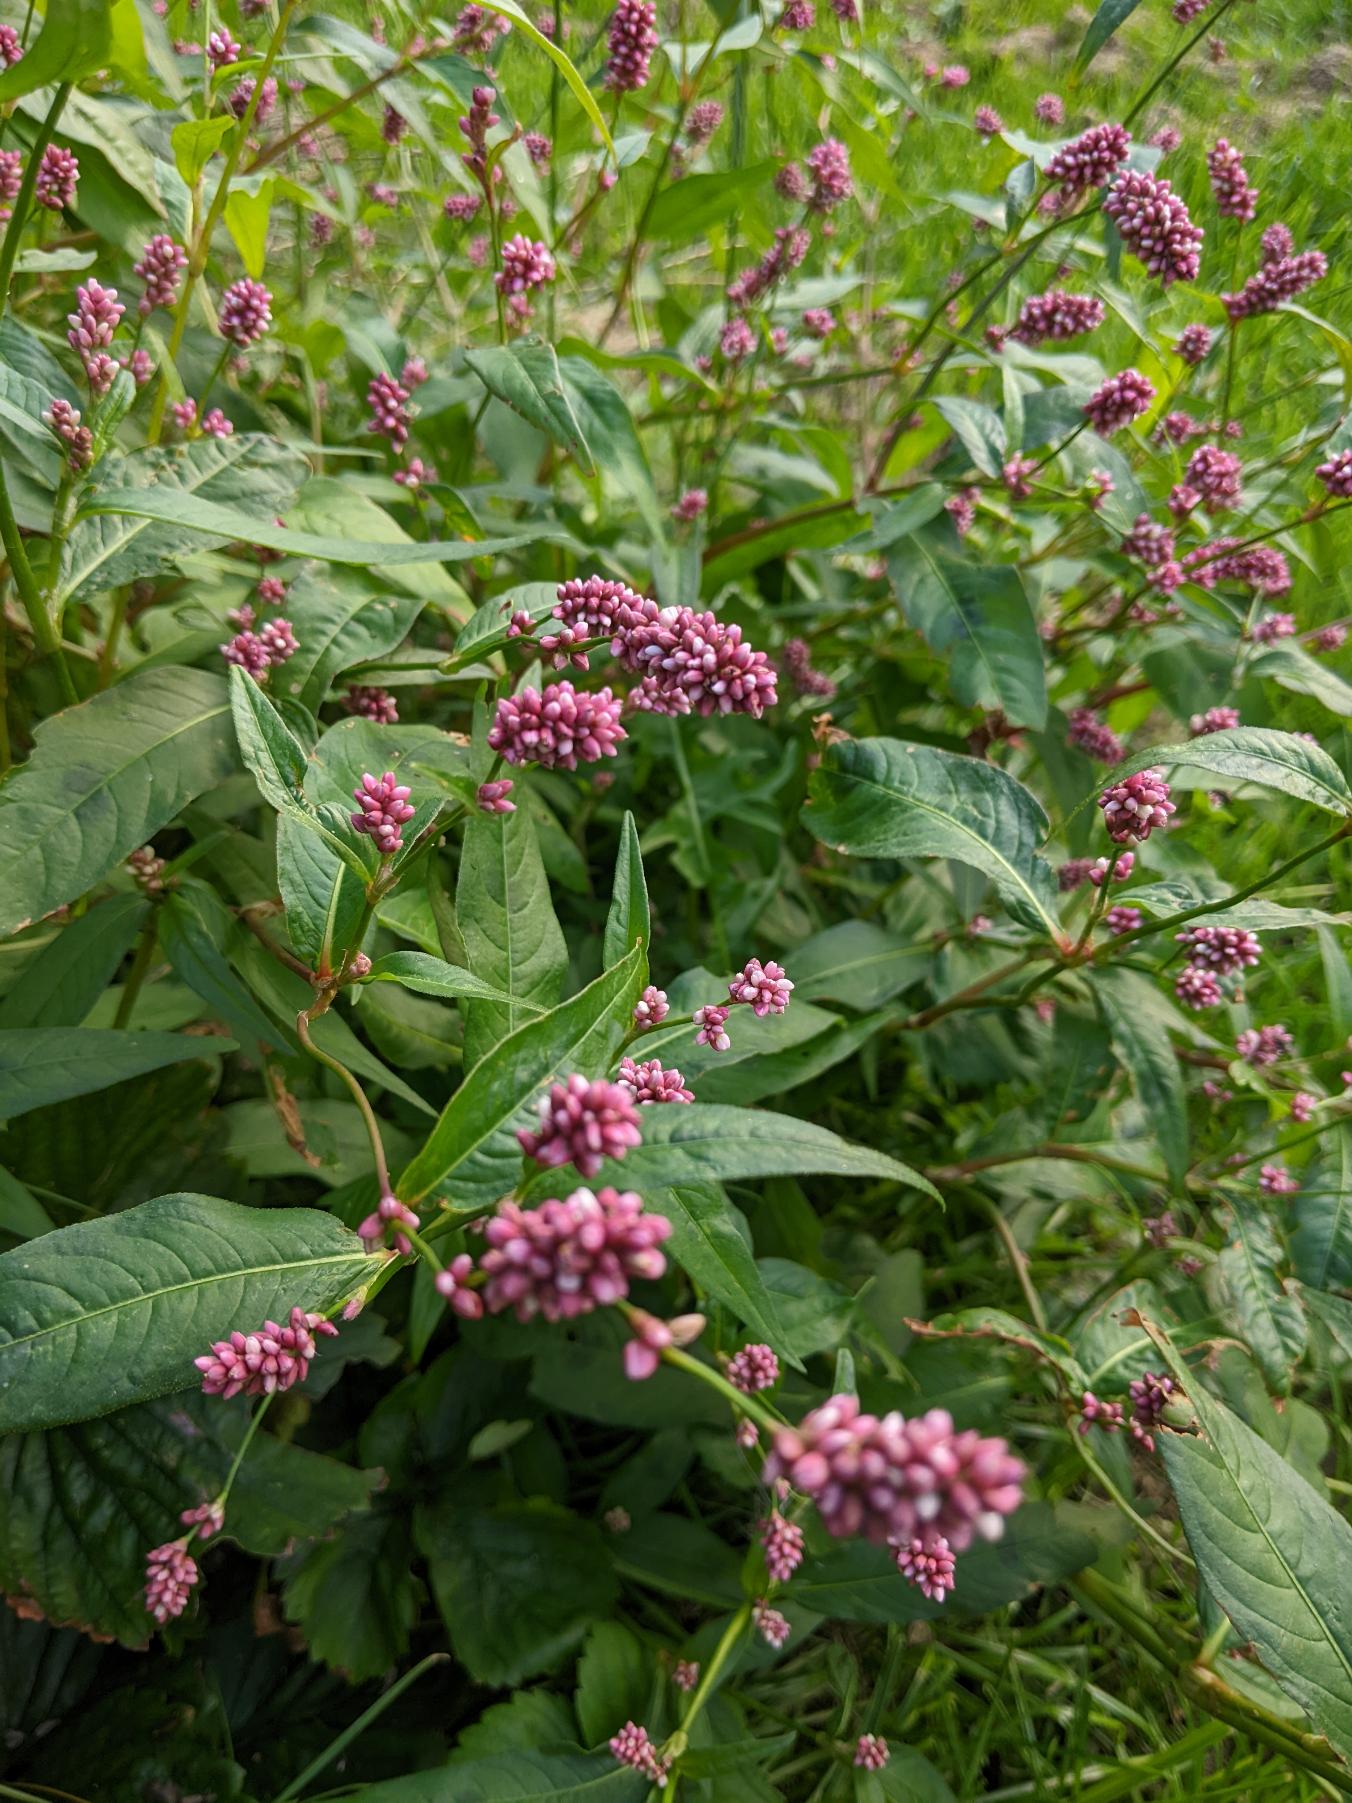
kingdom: Plantae
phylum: Tracheophyta
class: Magnoliopsida
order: Caryophyllales
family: Polygonaceae
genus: Persicaria
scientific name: Persicaria maculosa
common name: Fersken-pileurt
